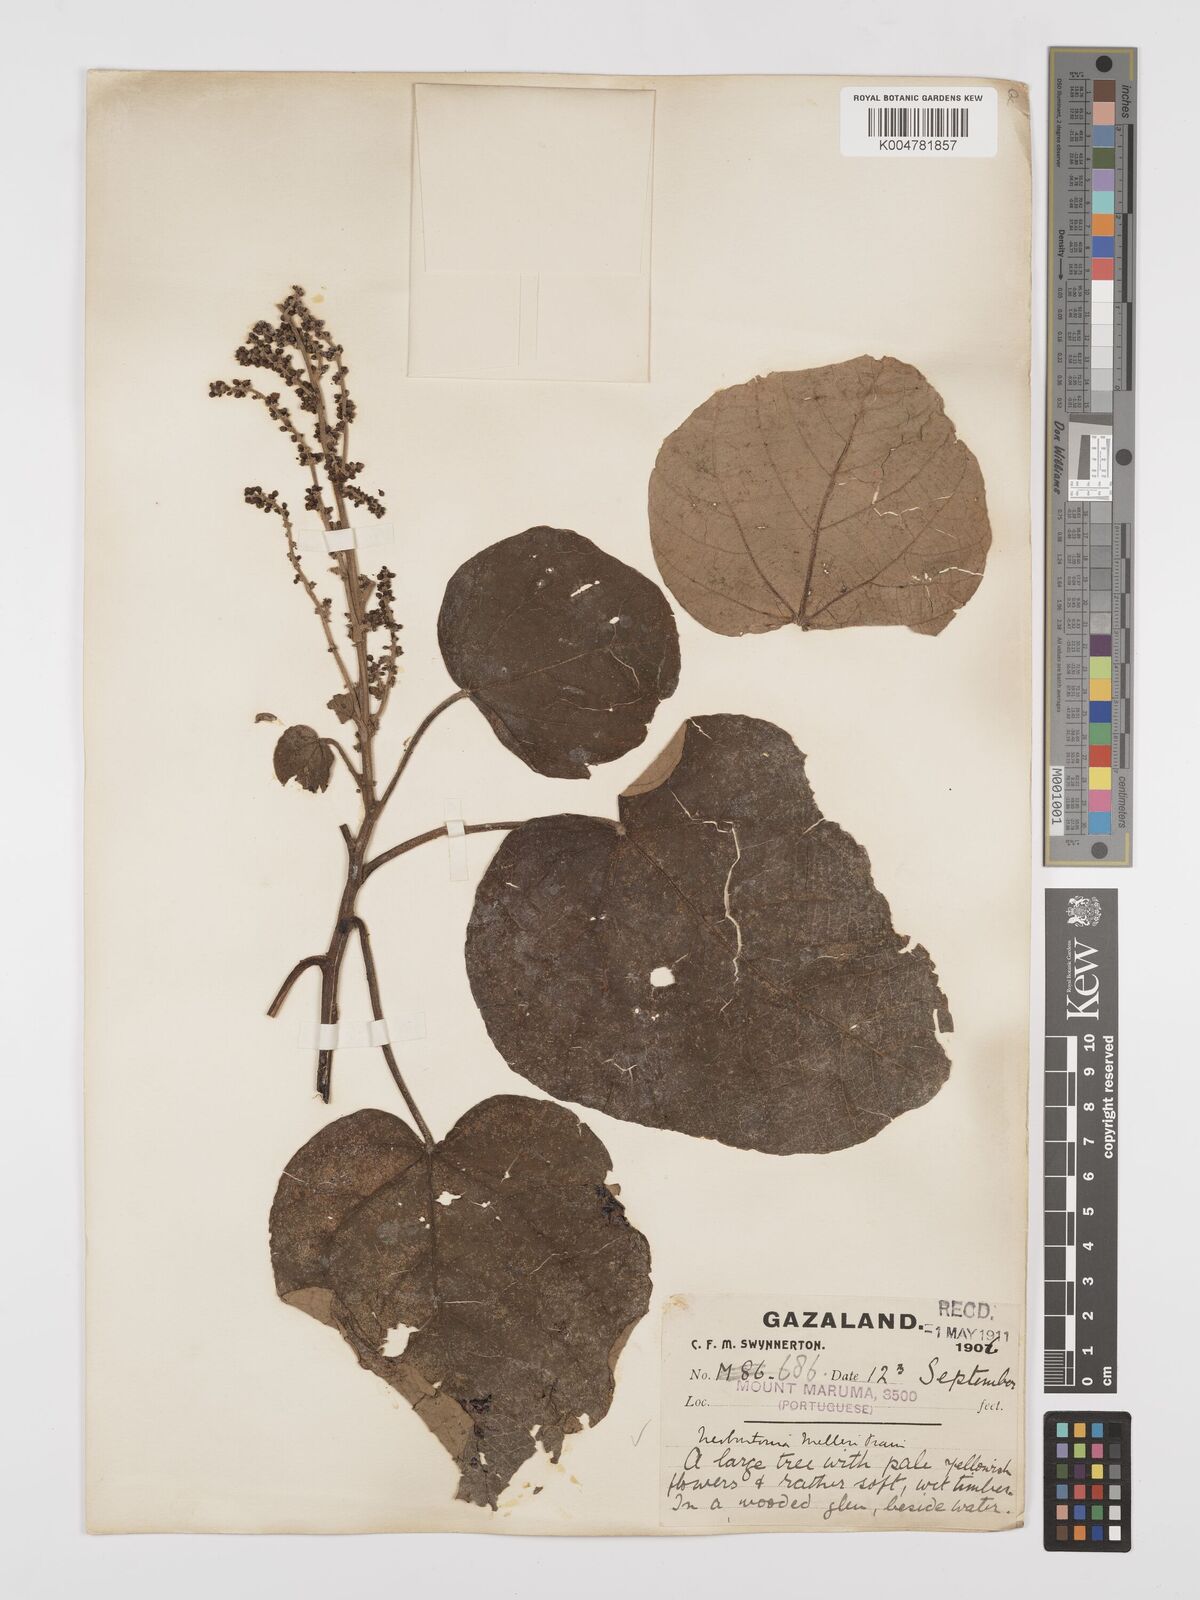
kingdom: Plantae
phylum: Tracheophyta
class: Magnoliopsida
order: Malpighiales
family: Euphorbiaceae
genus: Neoboutonia
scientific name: Neoboutonia melleri
